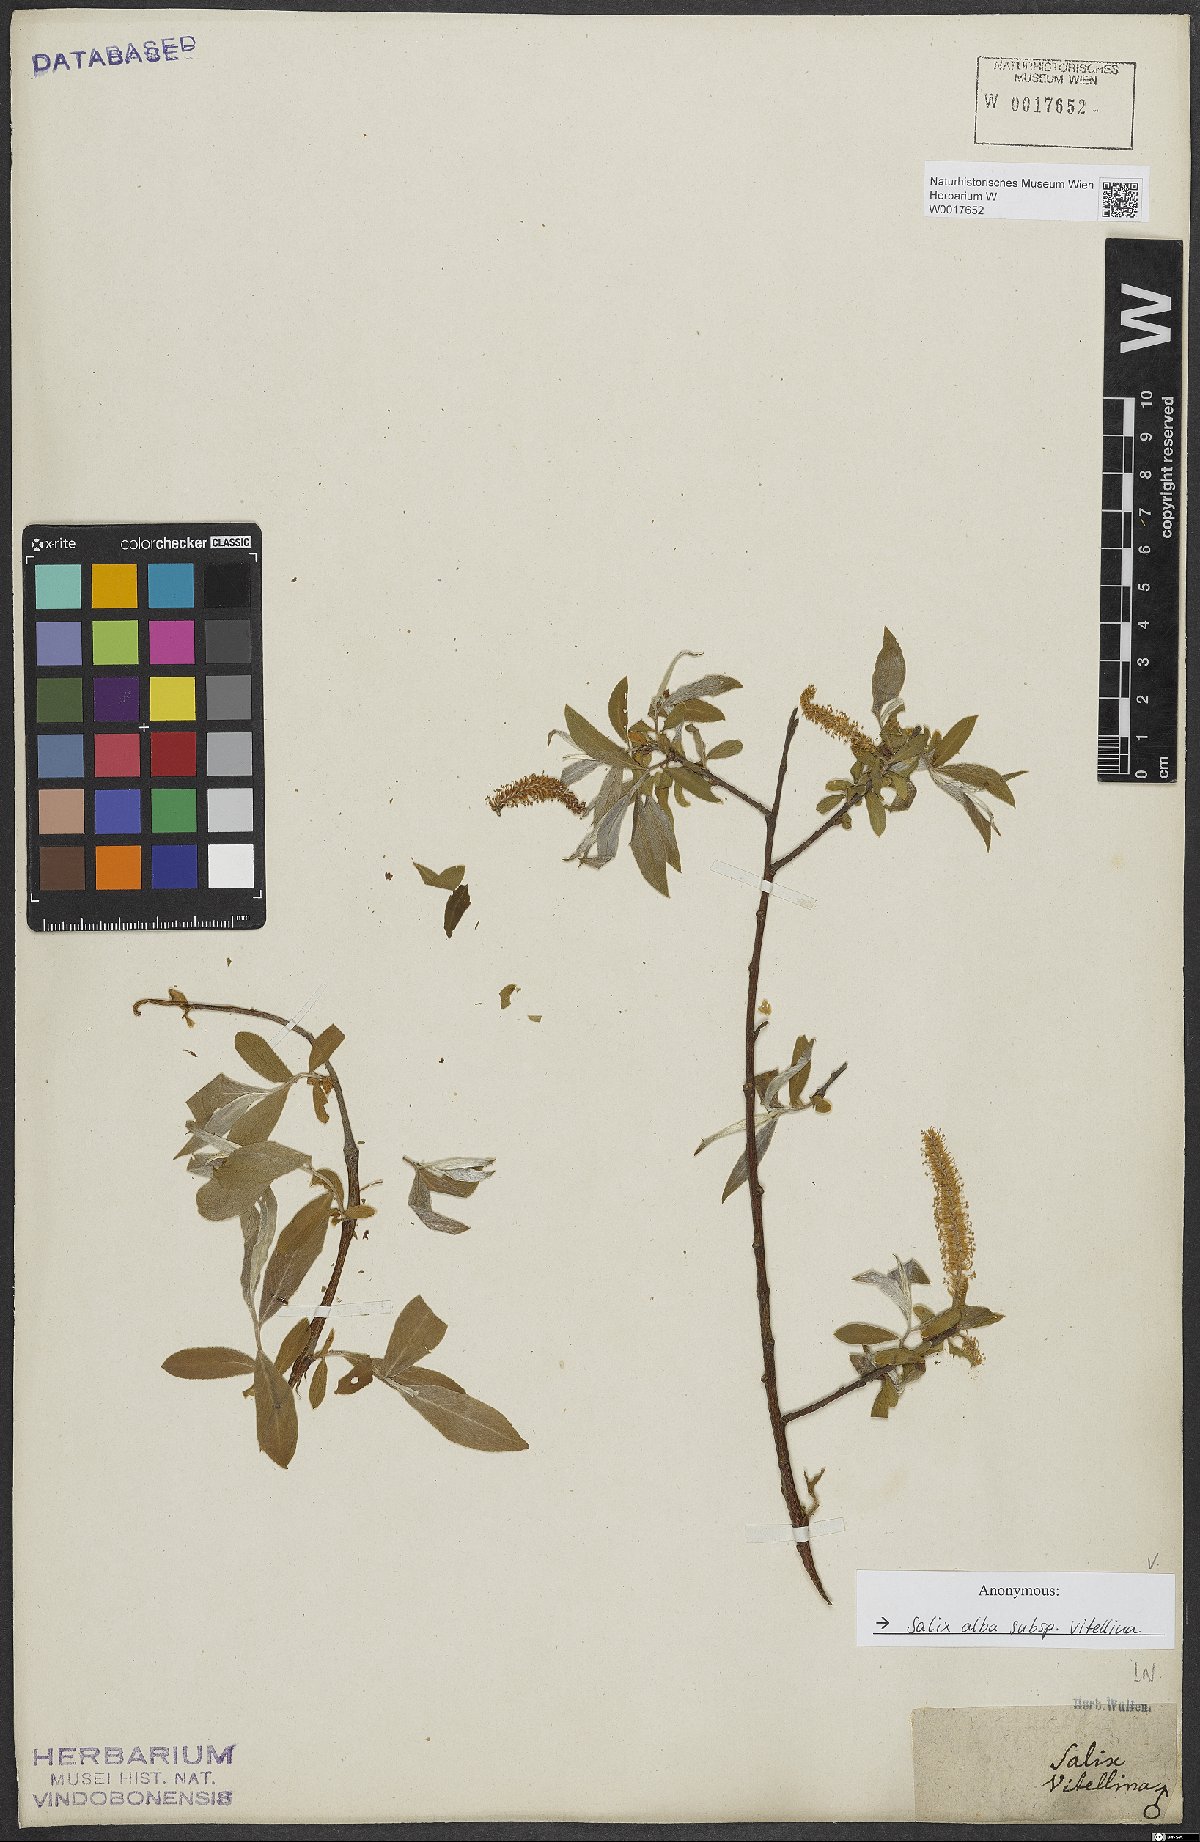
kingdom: Plantae
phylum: Tracheophyta
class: Magnoliopsida
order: Malpighiales
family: Salicaceae
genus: Salix
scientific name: Salix alba
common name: White willow
